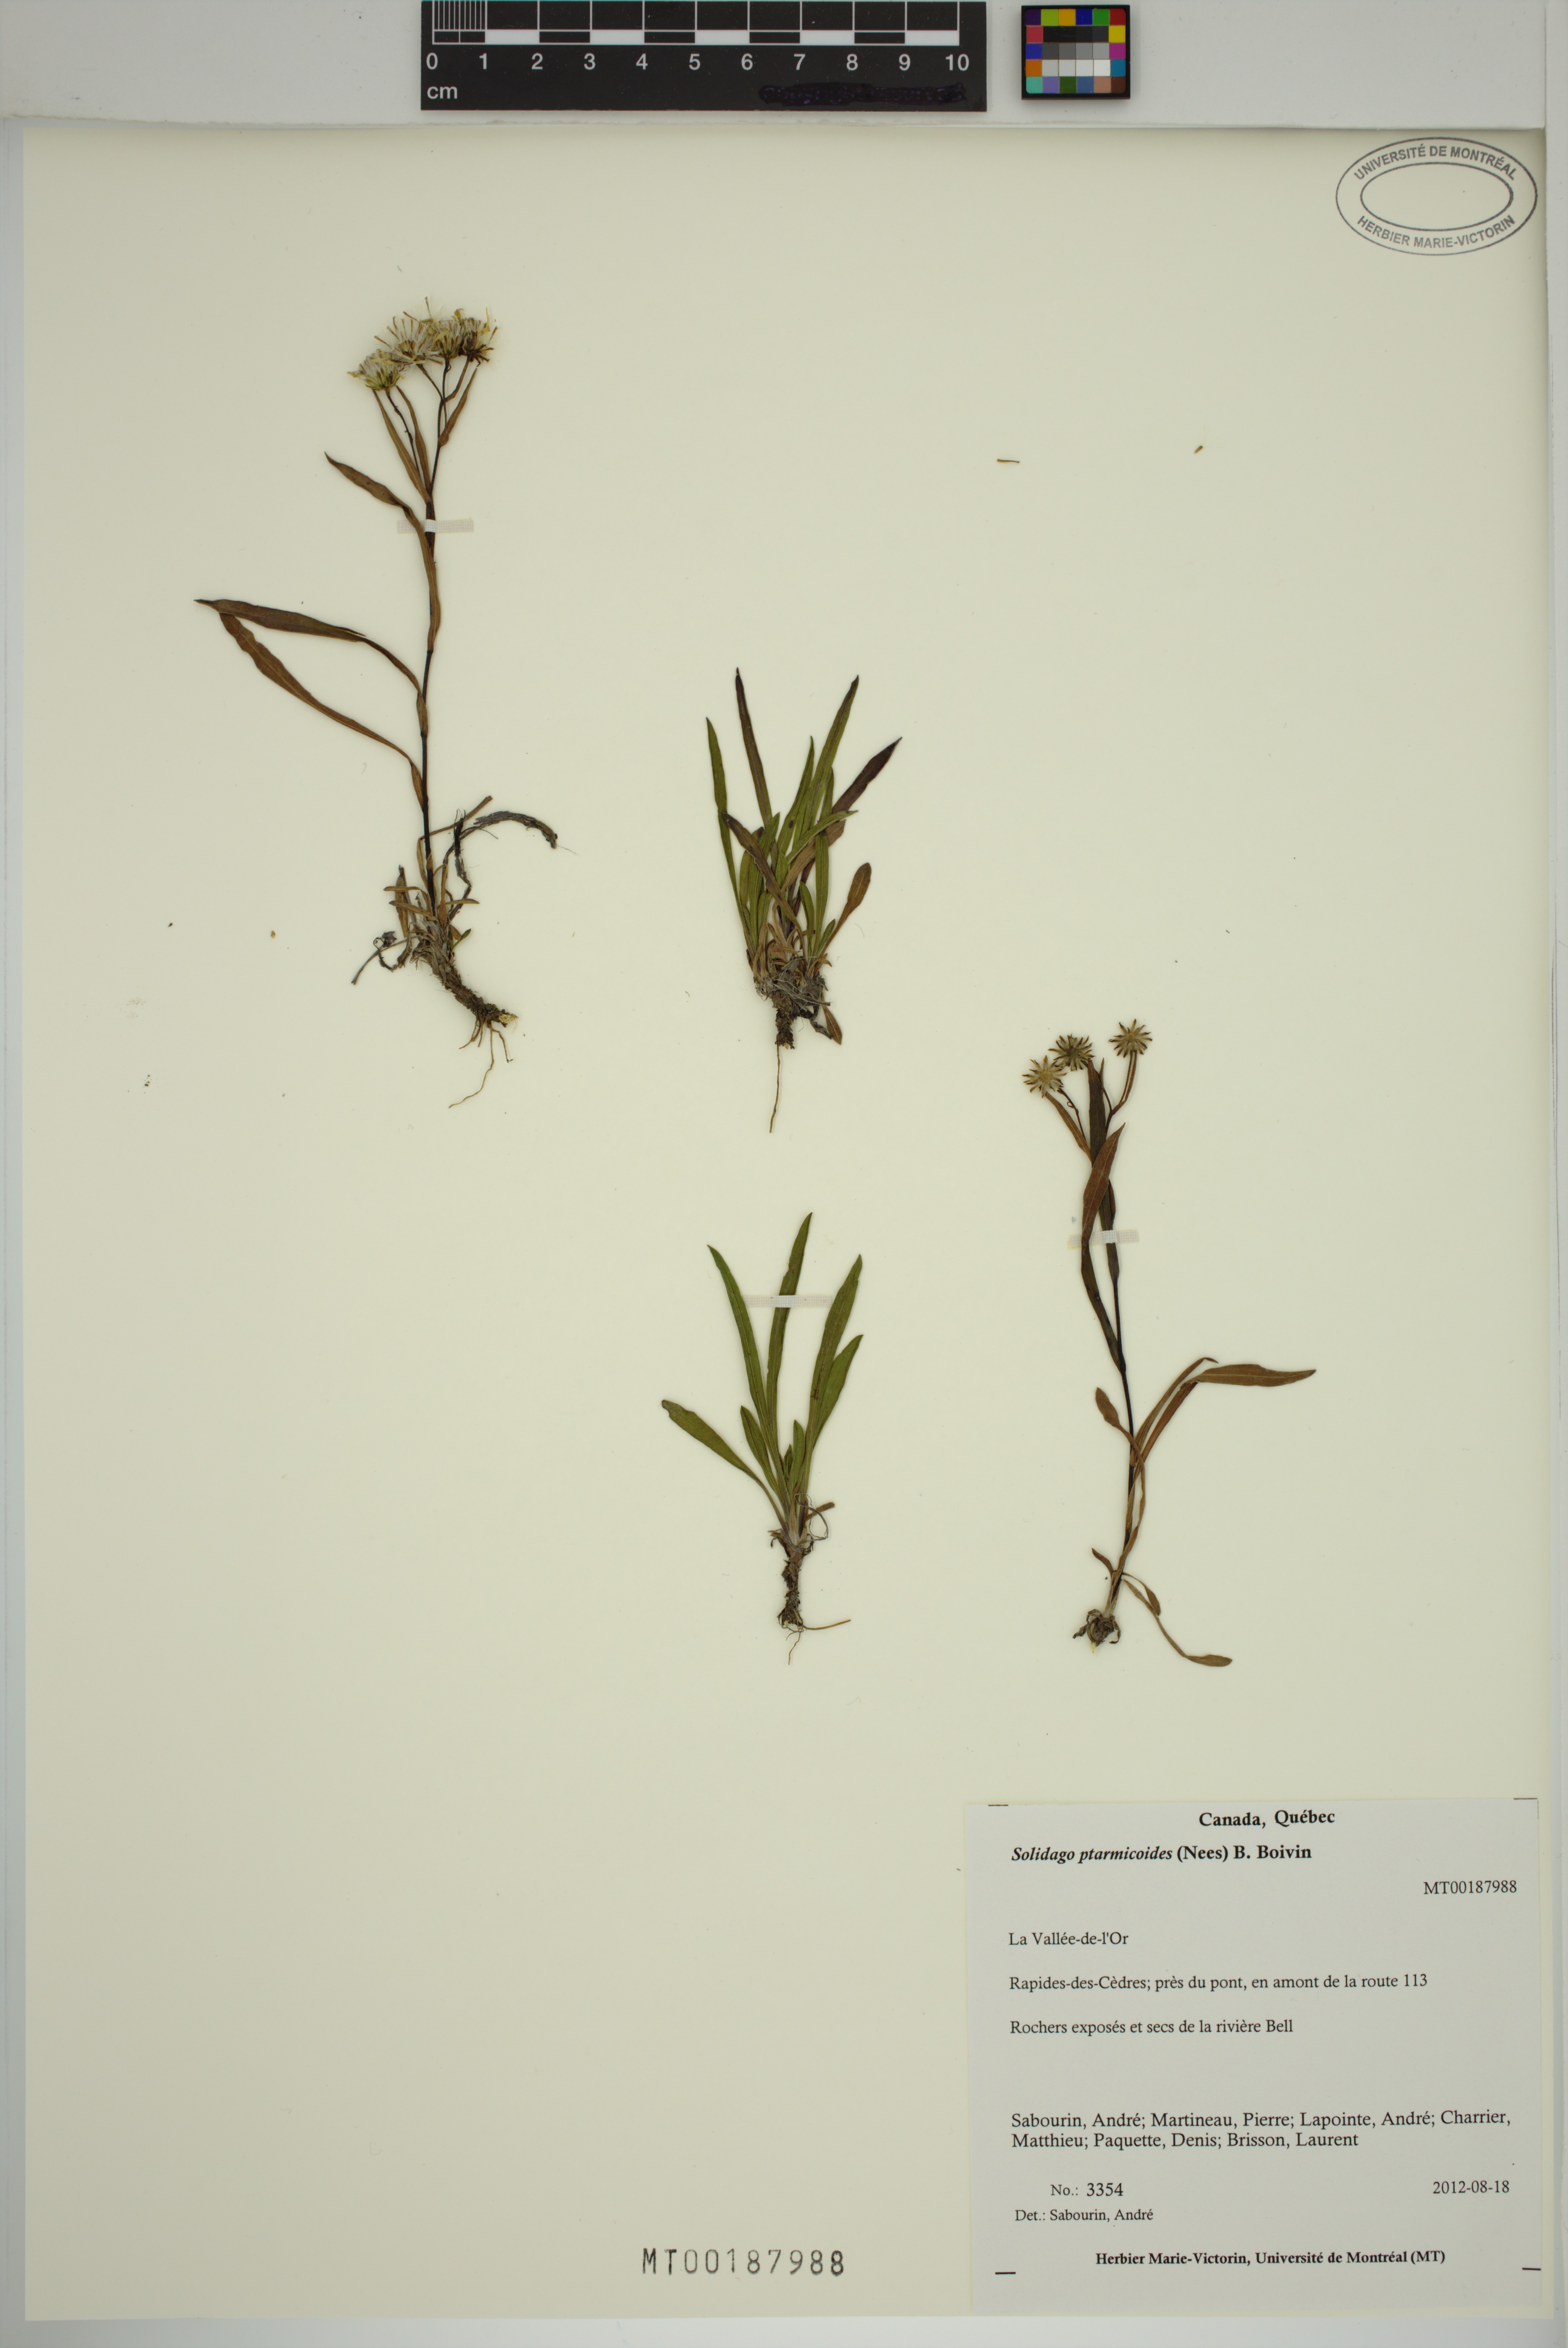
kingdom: Plantae
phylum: Tracheophyta
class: Magnoliopsida
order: Asterales
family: Asteraceae
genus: Solidago
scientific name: Solidago ptarmicoides
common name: White flat-top goldenrod
